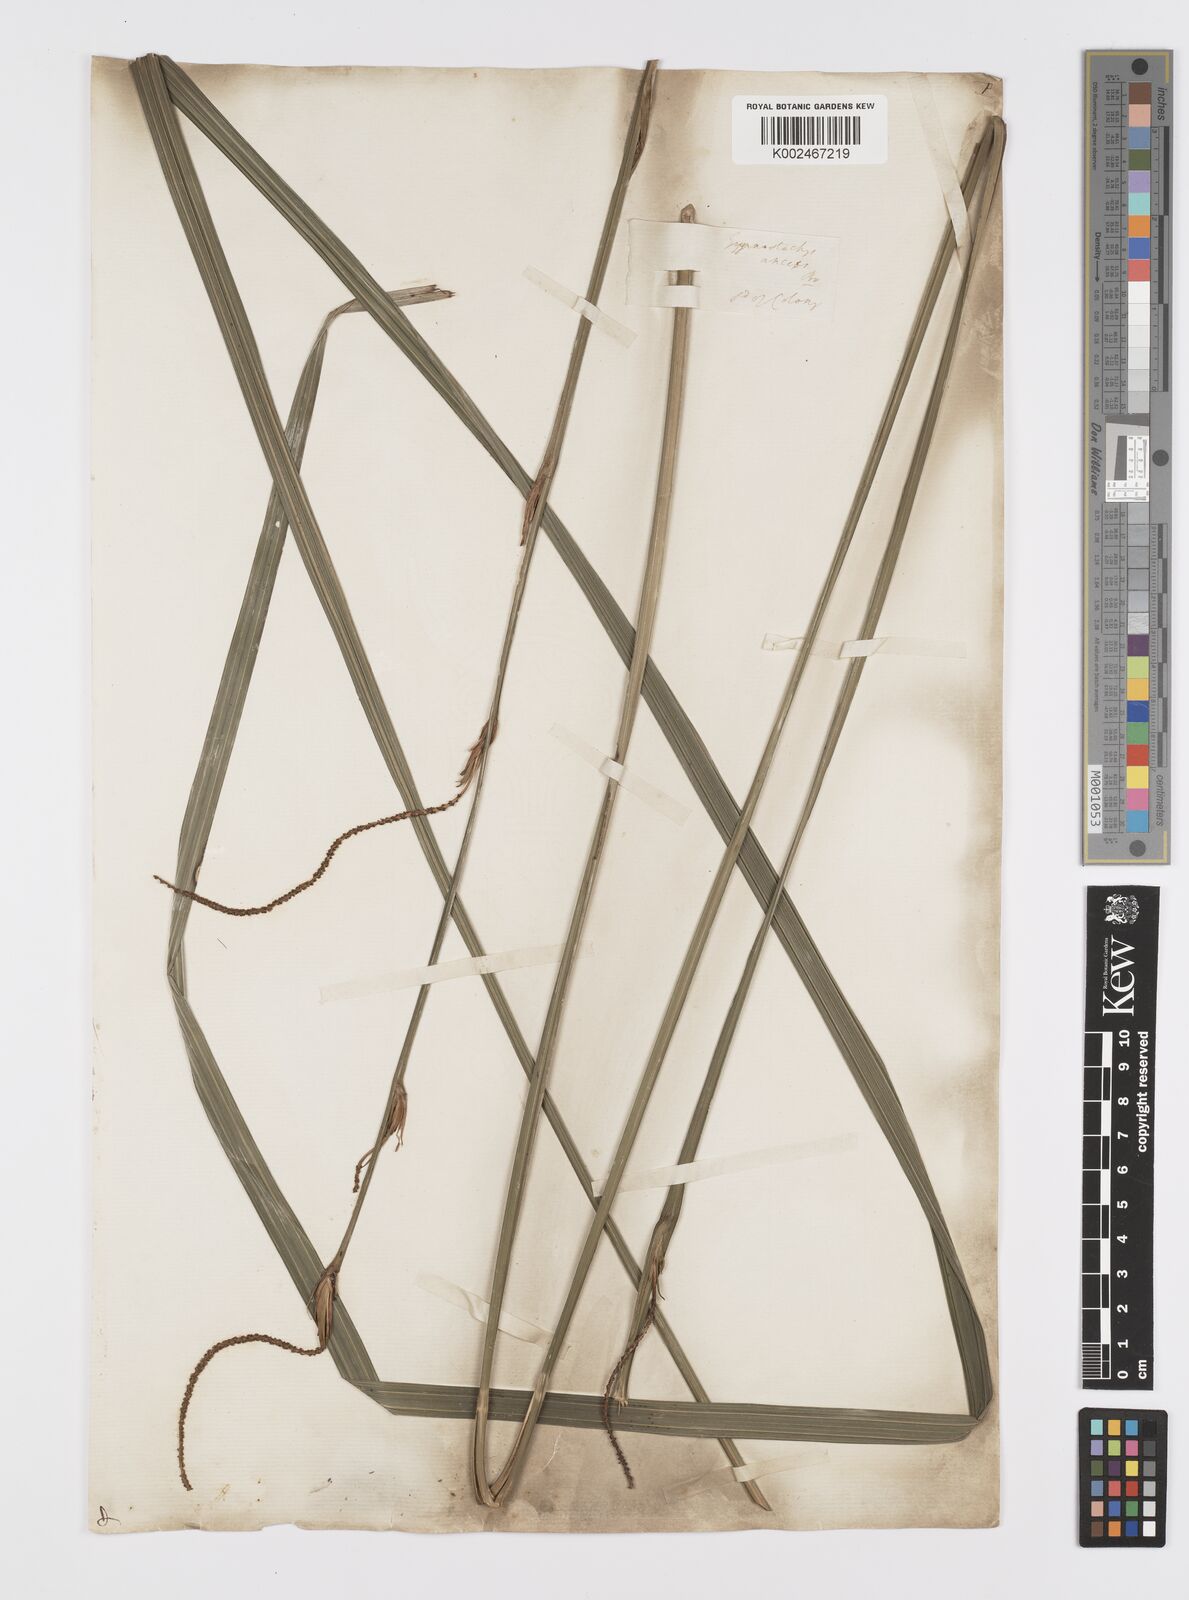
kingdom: Plantae
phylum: Tracheophyta
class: Liliopsida
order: Alismatales
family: Araceae
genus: Gymnostachys
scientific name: Gymnostachys anceps
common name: Settler's-flax
